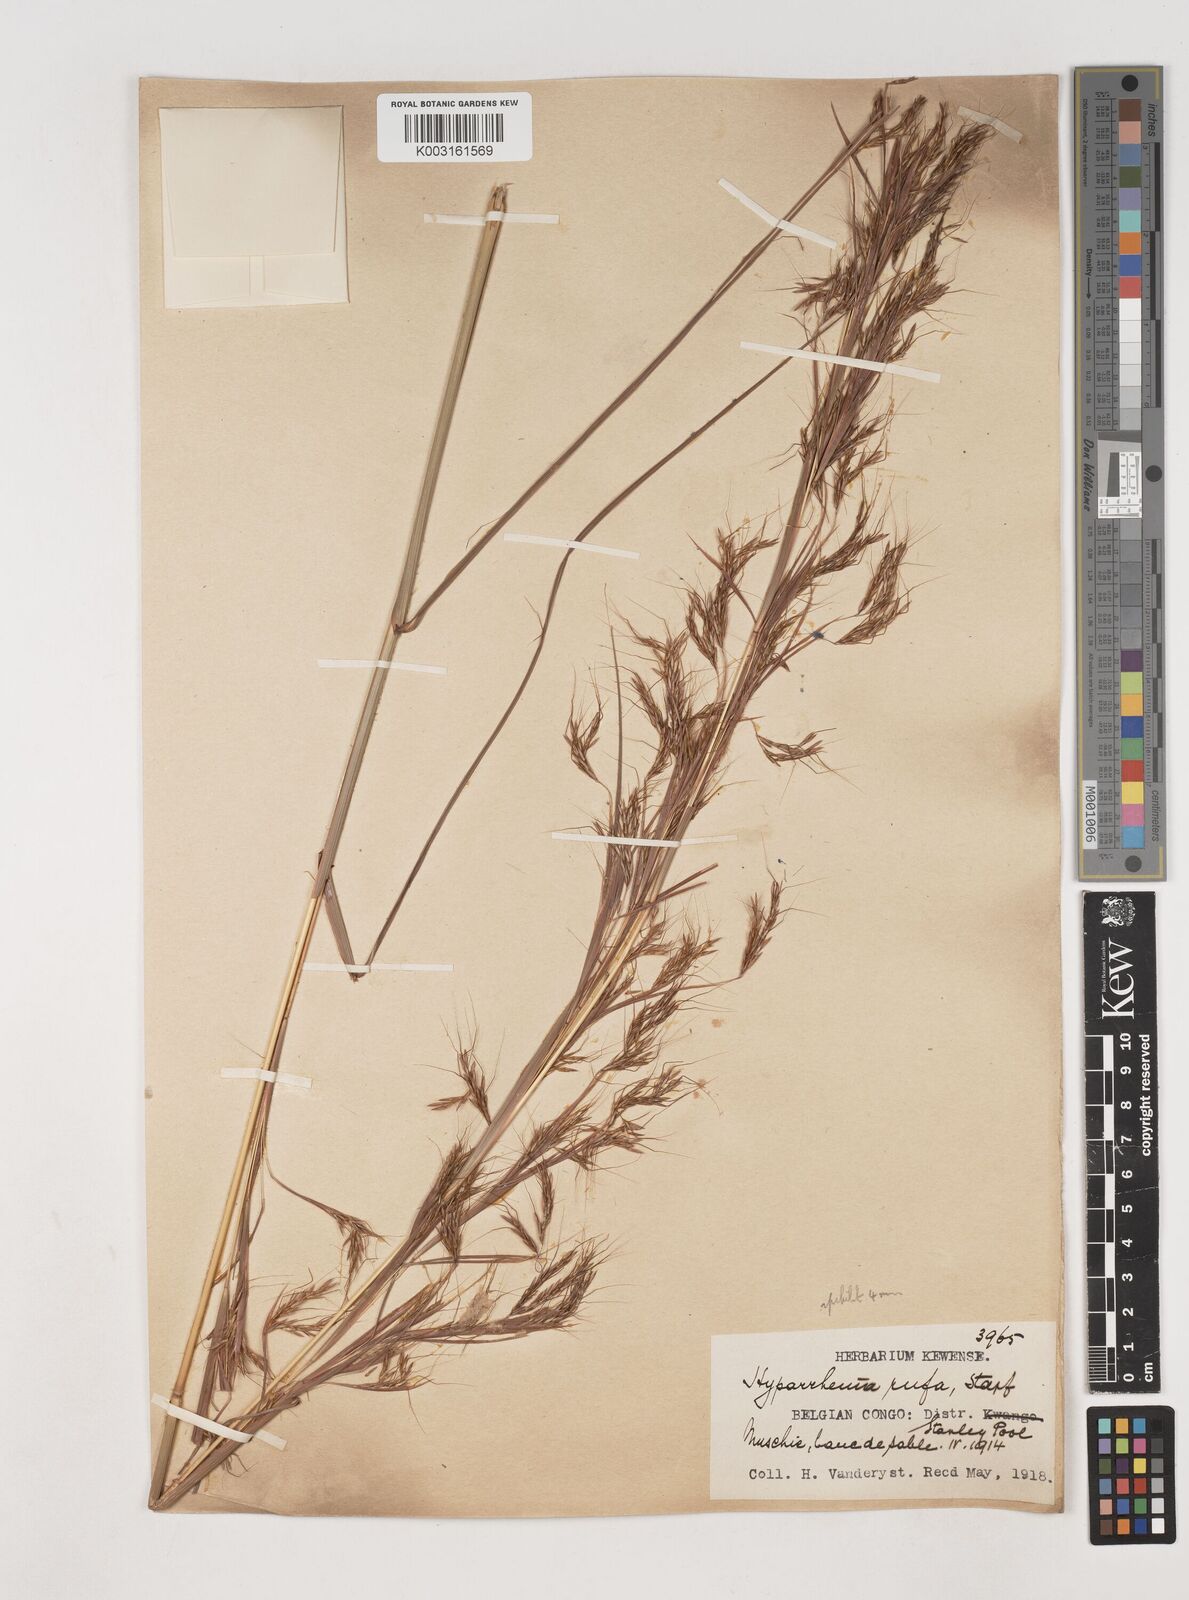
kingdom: Plantae
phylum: Tracheophyta
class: Liliopsida
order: Poales
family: Poaceae
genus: Hyparrhenia
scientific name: Hyparrhenia rufa
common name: Jaraguagrass
